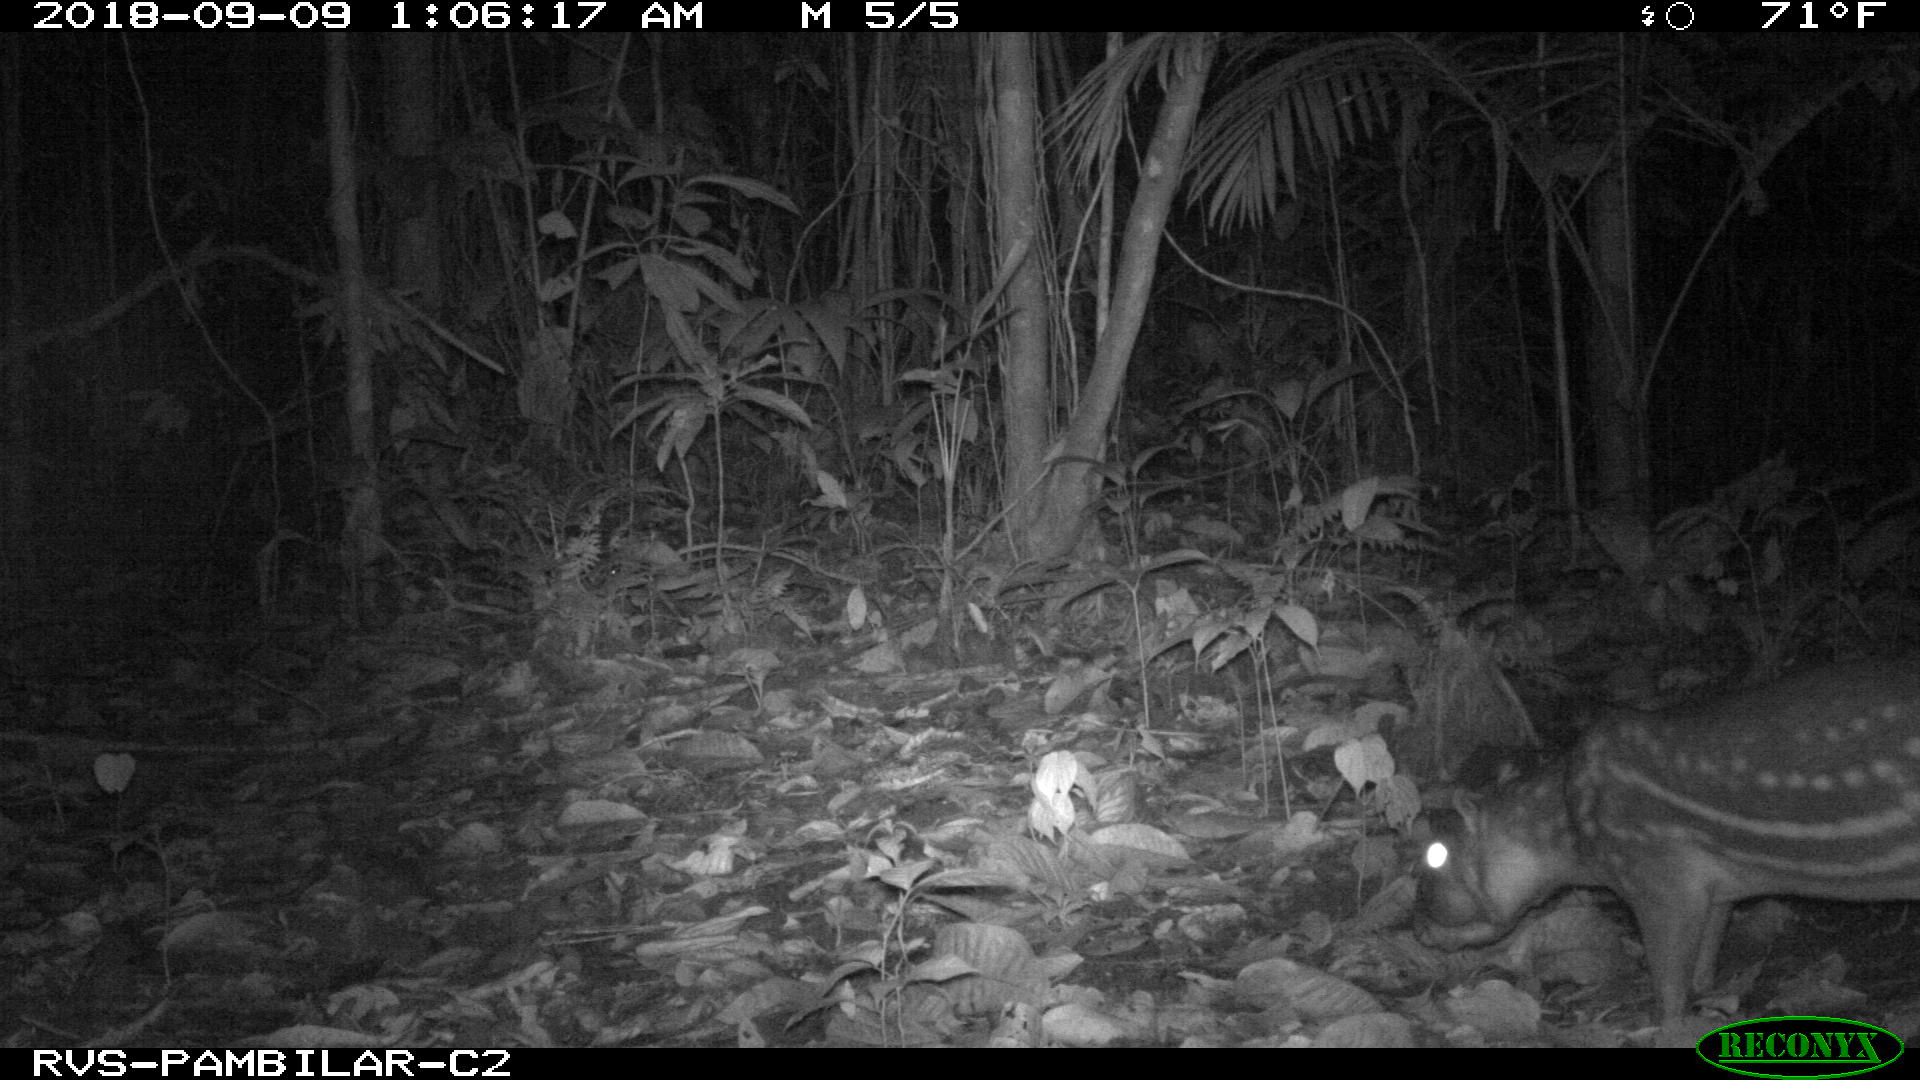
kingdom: Animalia
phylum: Chordata
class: Mammalia
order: Rodentia
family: Cuniculidae
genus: Cuniculus
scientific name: Cuniculus paca
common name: Lowland paca
